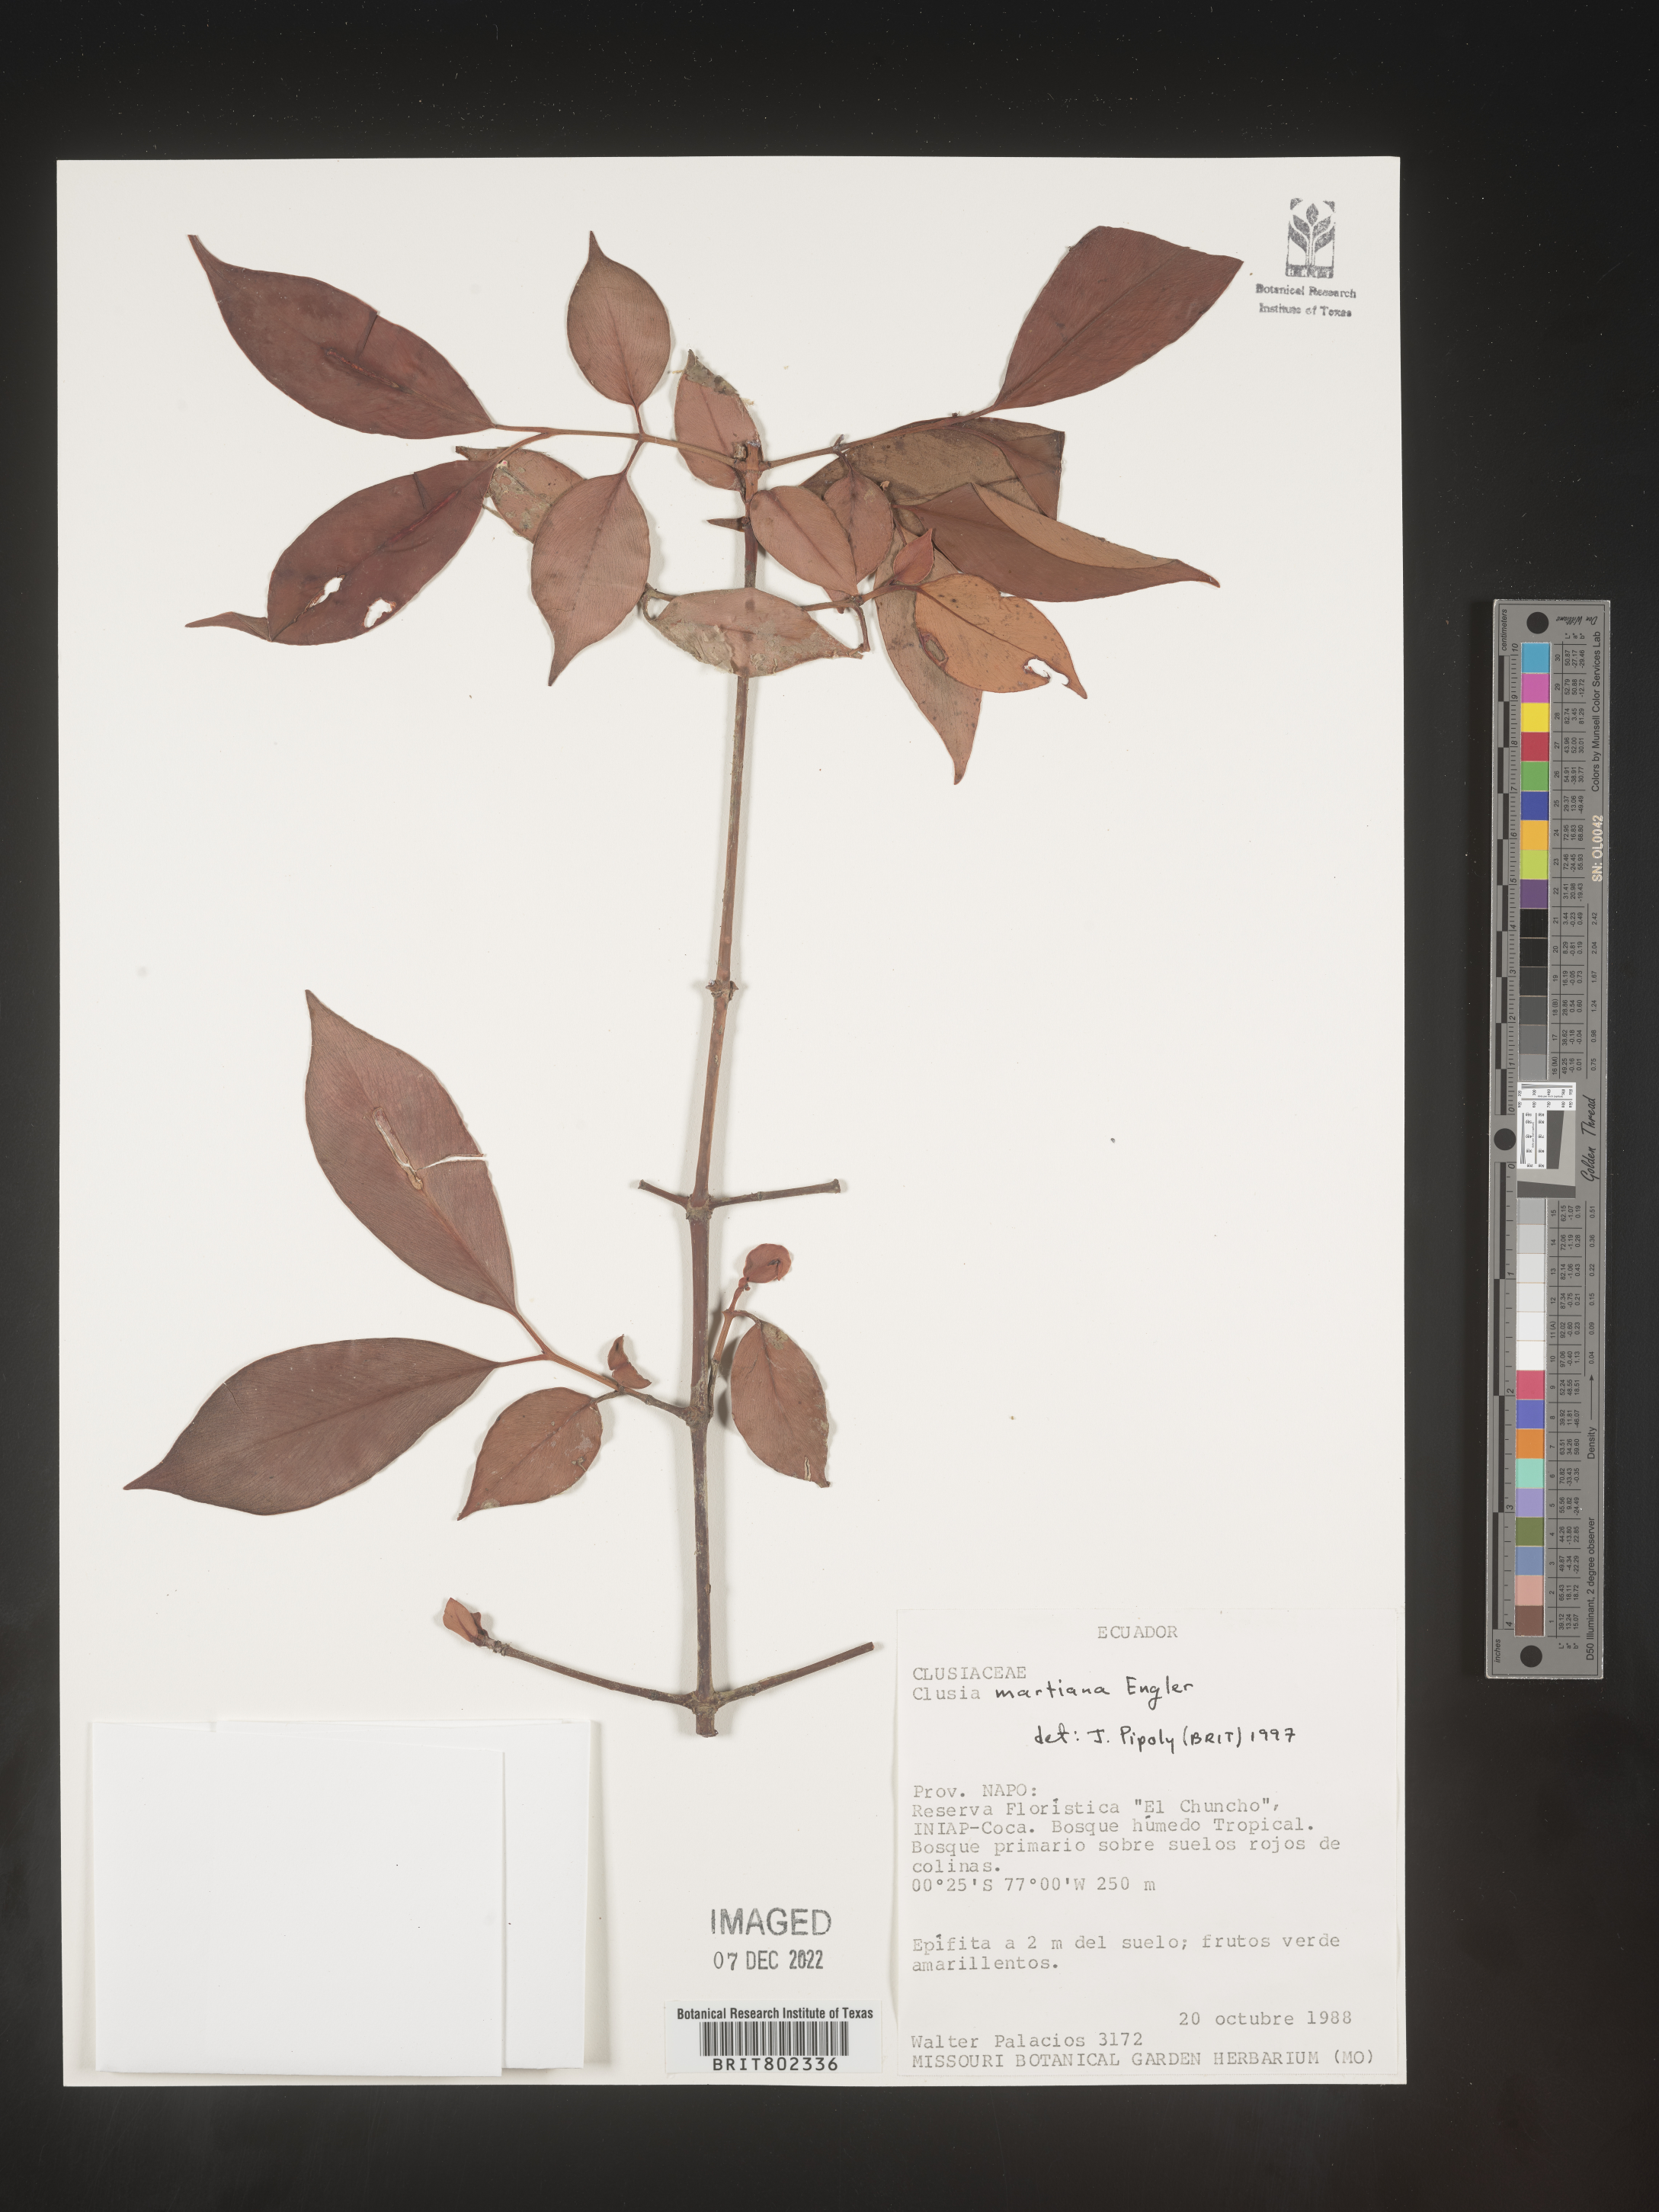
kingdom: Plantae
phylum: Tracheophyta
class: Magnoliopsida
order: Malpighiales
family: Clusiaceae
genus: Clusia
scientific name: Clusia hammeliana
